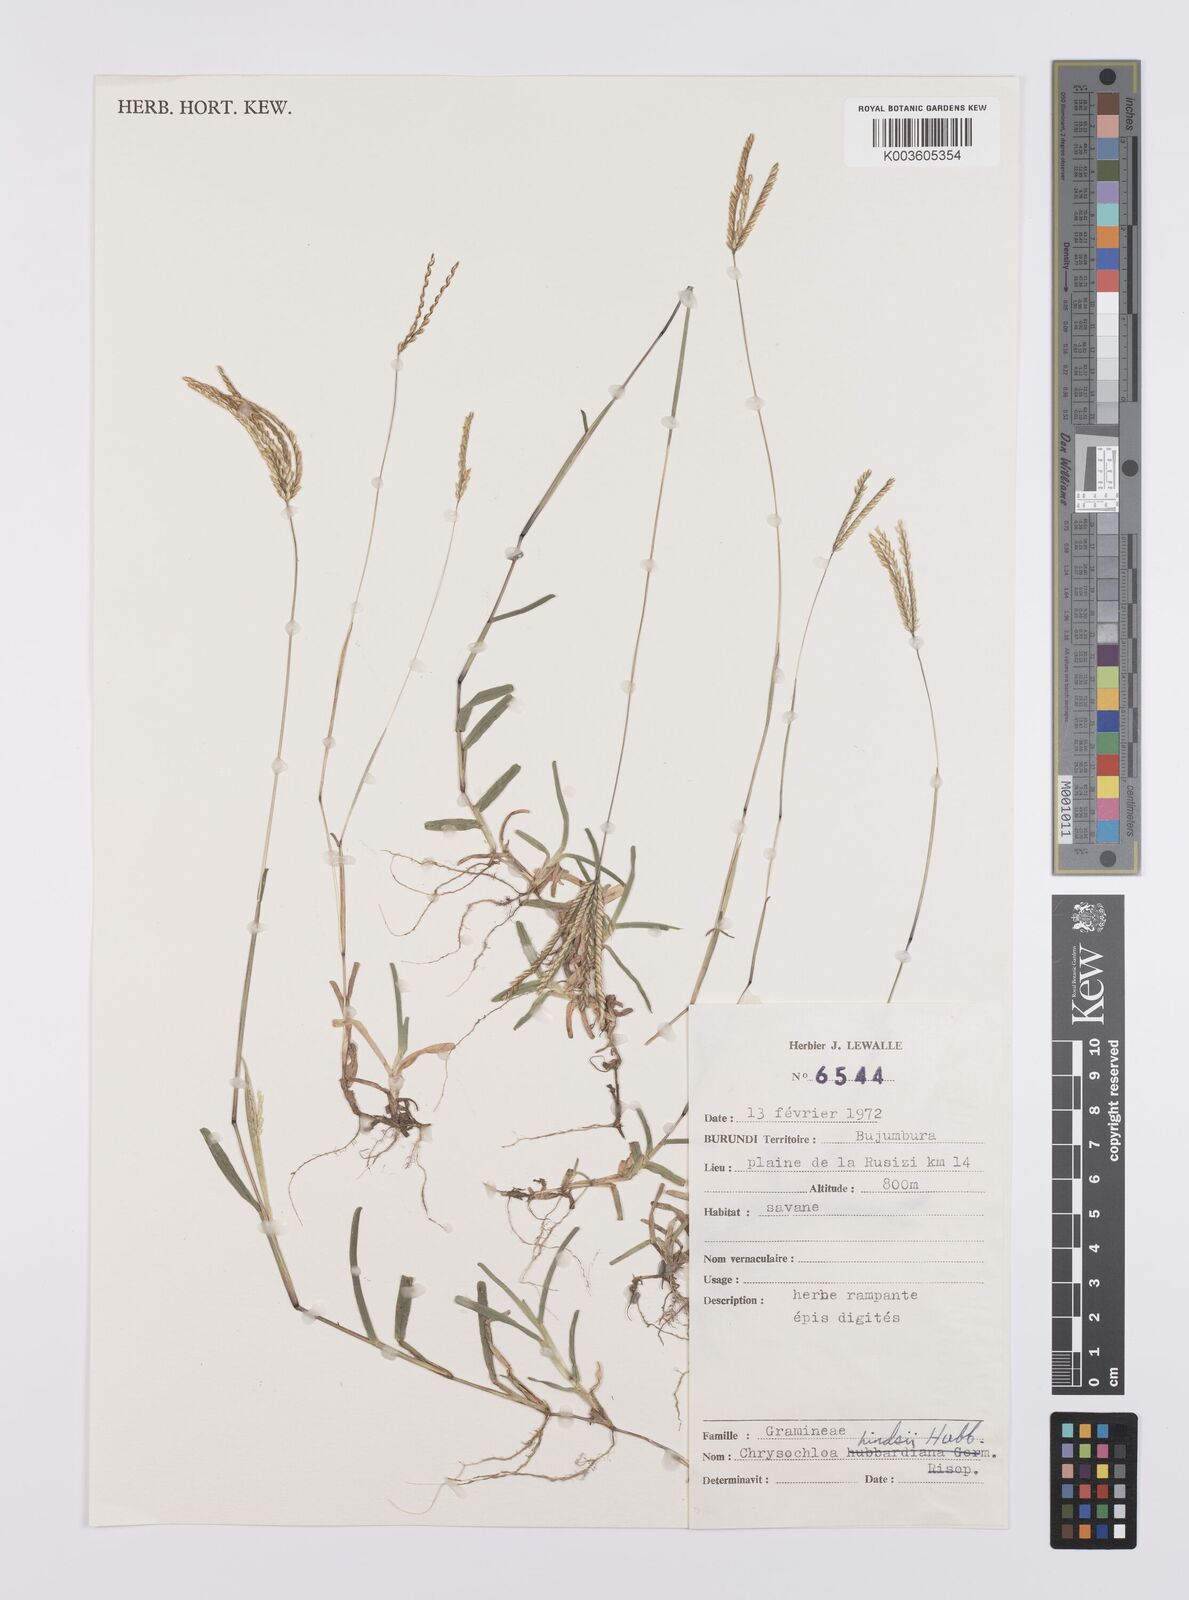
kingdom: Plantae
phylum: Tracheophyta
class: Liliopsida
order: Poales
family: Poaceae
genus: Chrysochloa
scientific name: Chrysochloa hindsii
